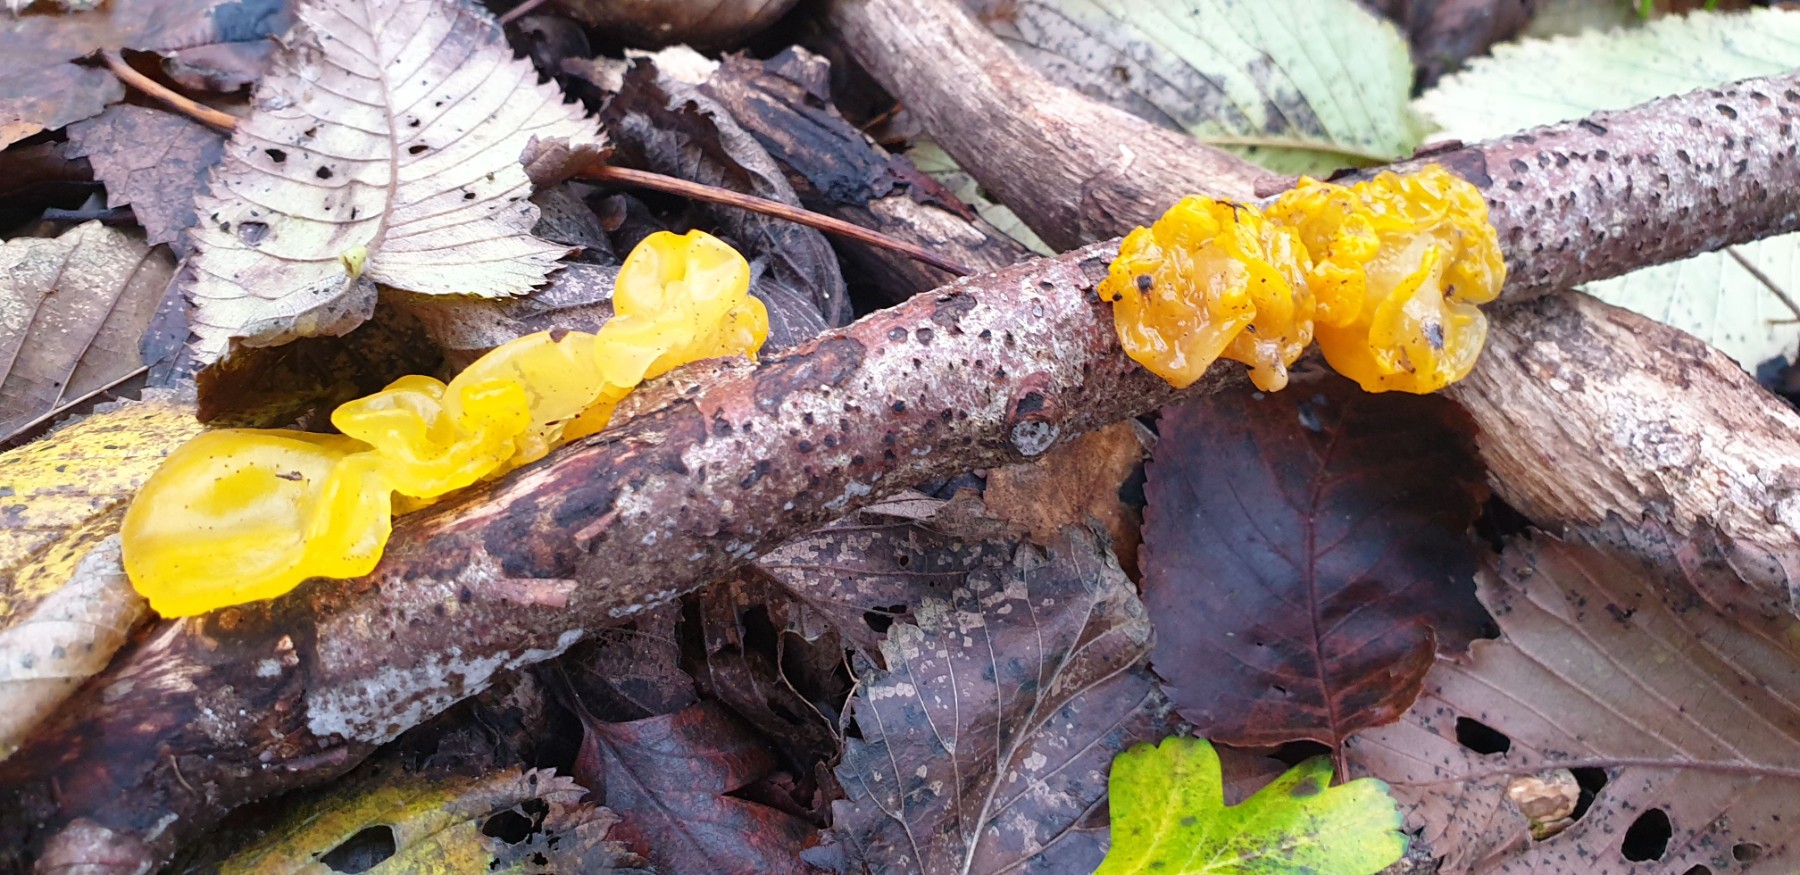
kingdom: Fungi
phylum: Basidiomycota
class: Tremellomycetes
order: Tremellales
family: Tremellaceae
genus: Tremella
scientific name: Tremella mesenterica
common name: gul bævresvamp
